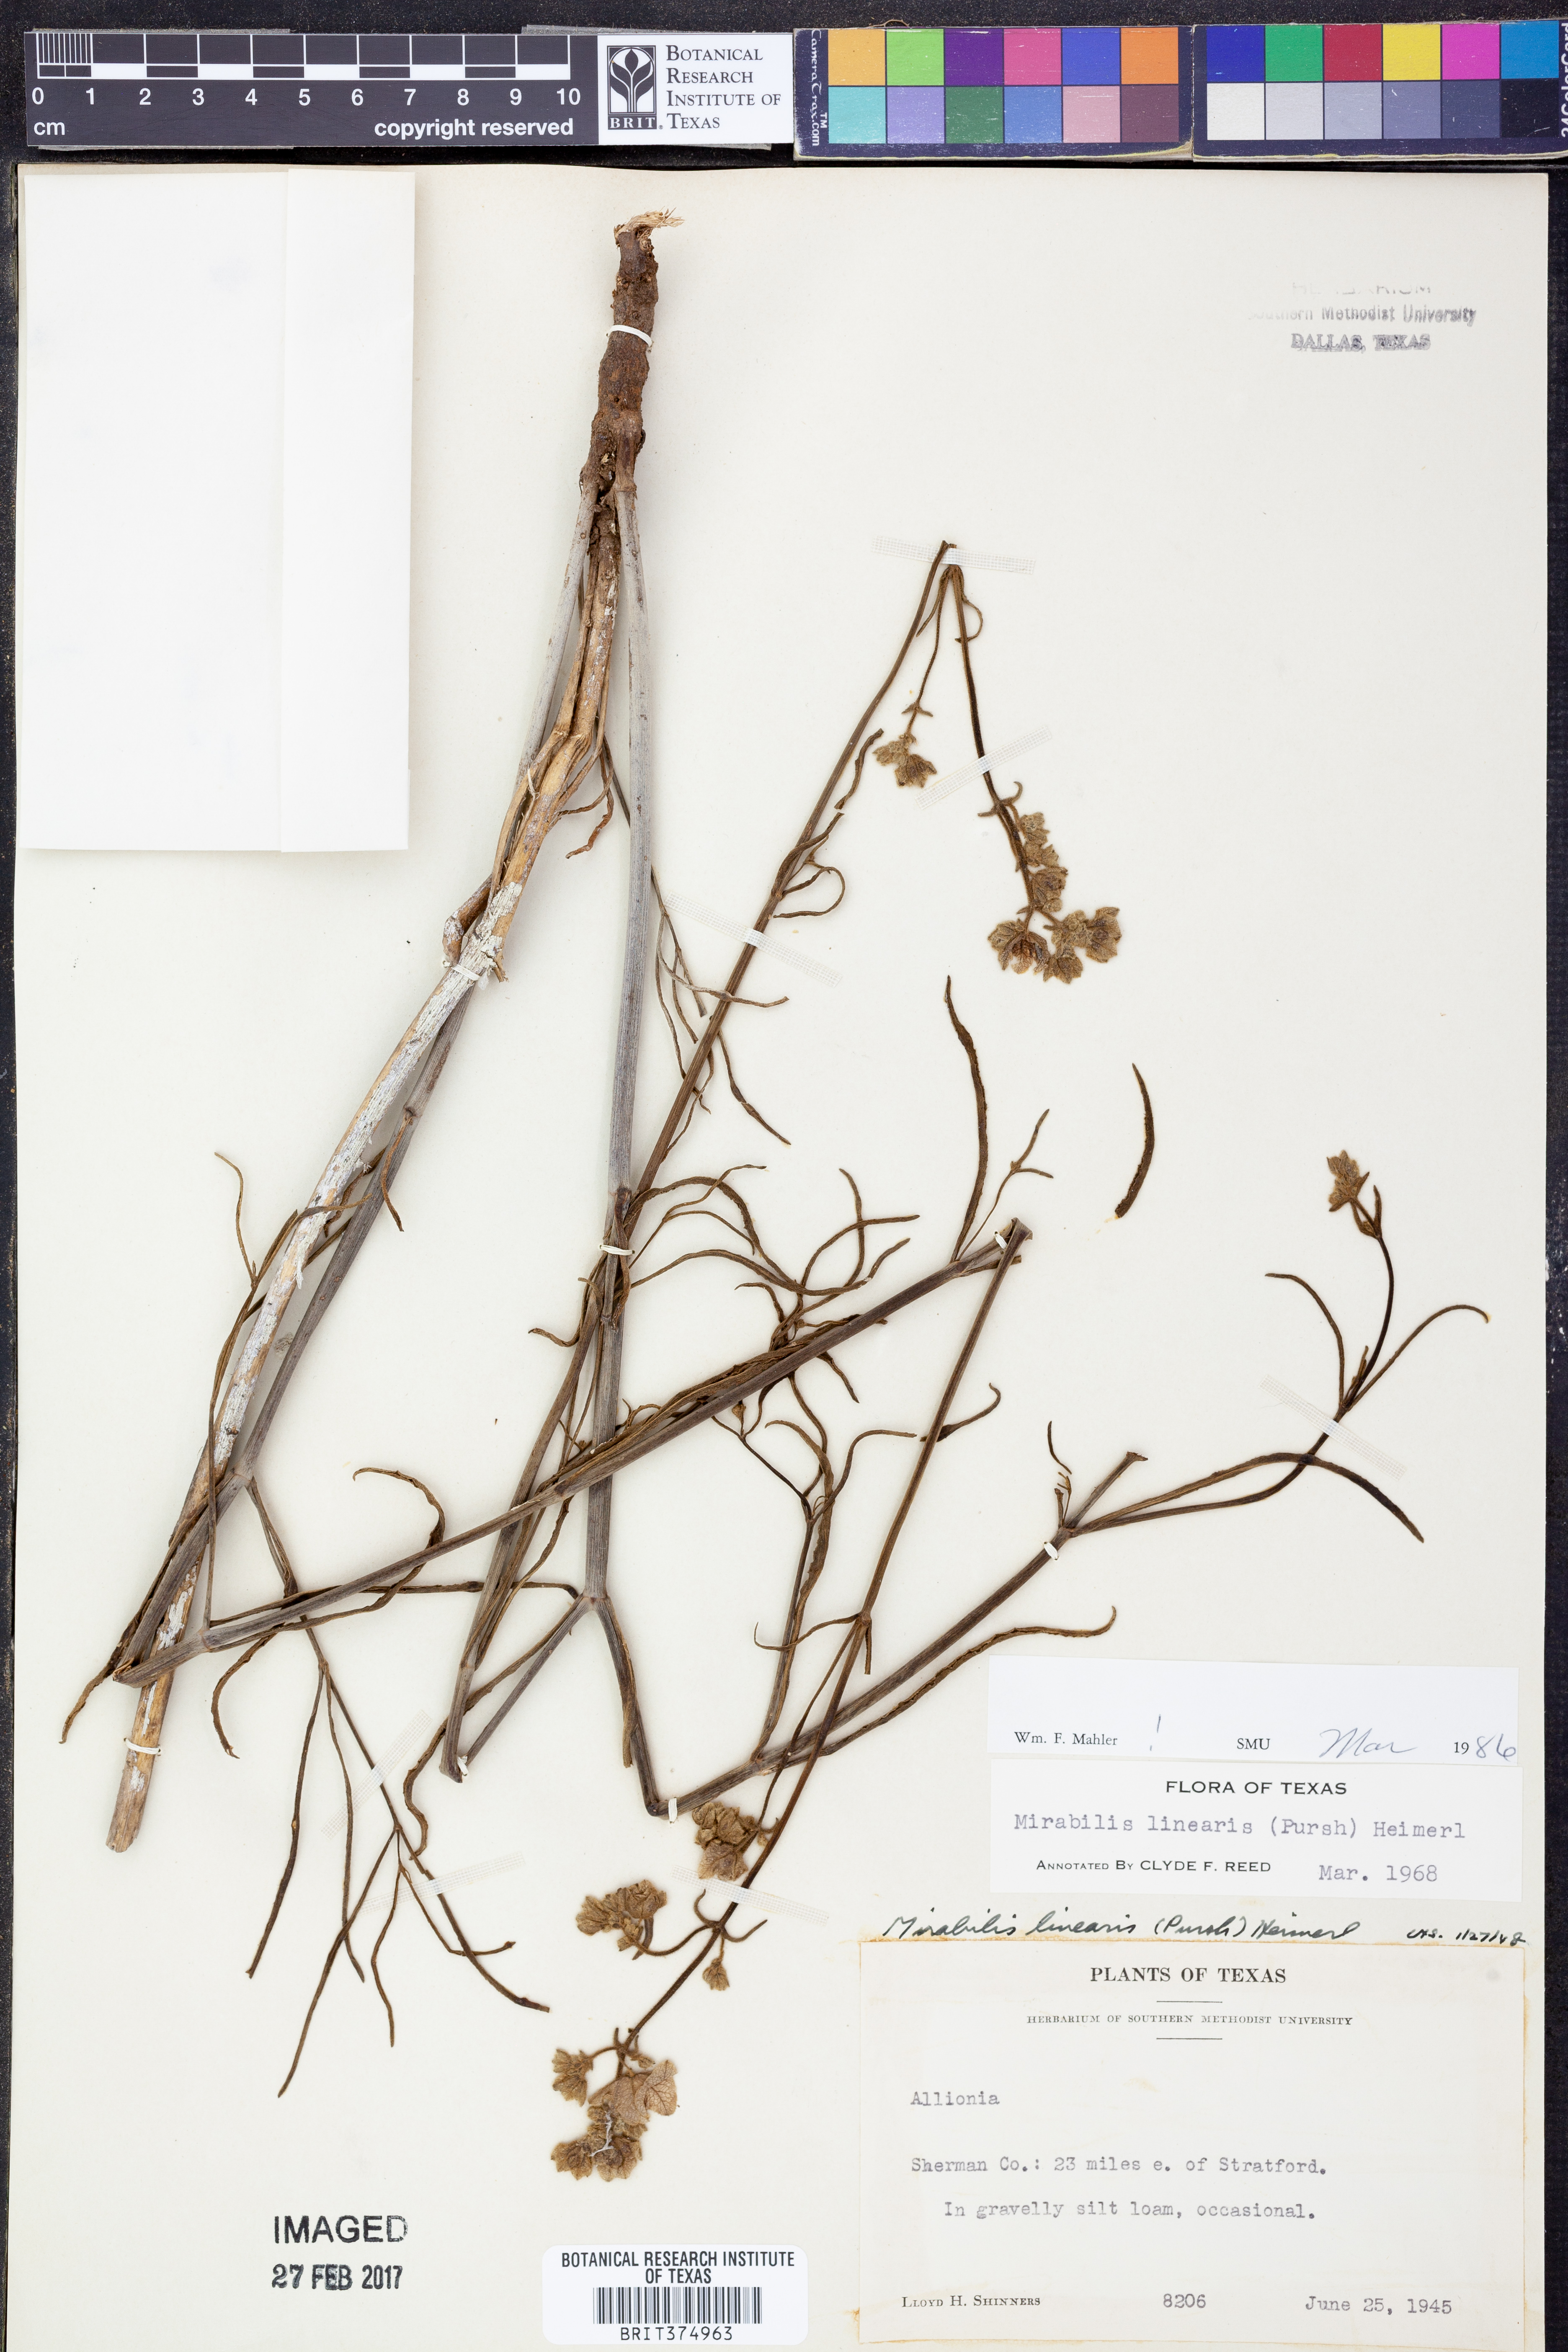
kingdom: Plantae
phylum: Tracheophyta
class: Magnoliopsida
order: Caryophyllales
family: Nyctaginaceae
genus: Mirabilis
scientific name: Mirabilis linearis
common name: Linear-leaved four-o'clock
